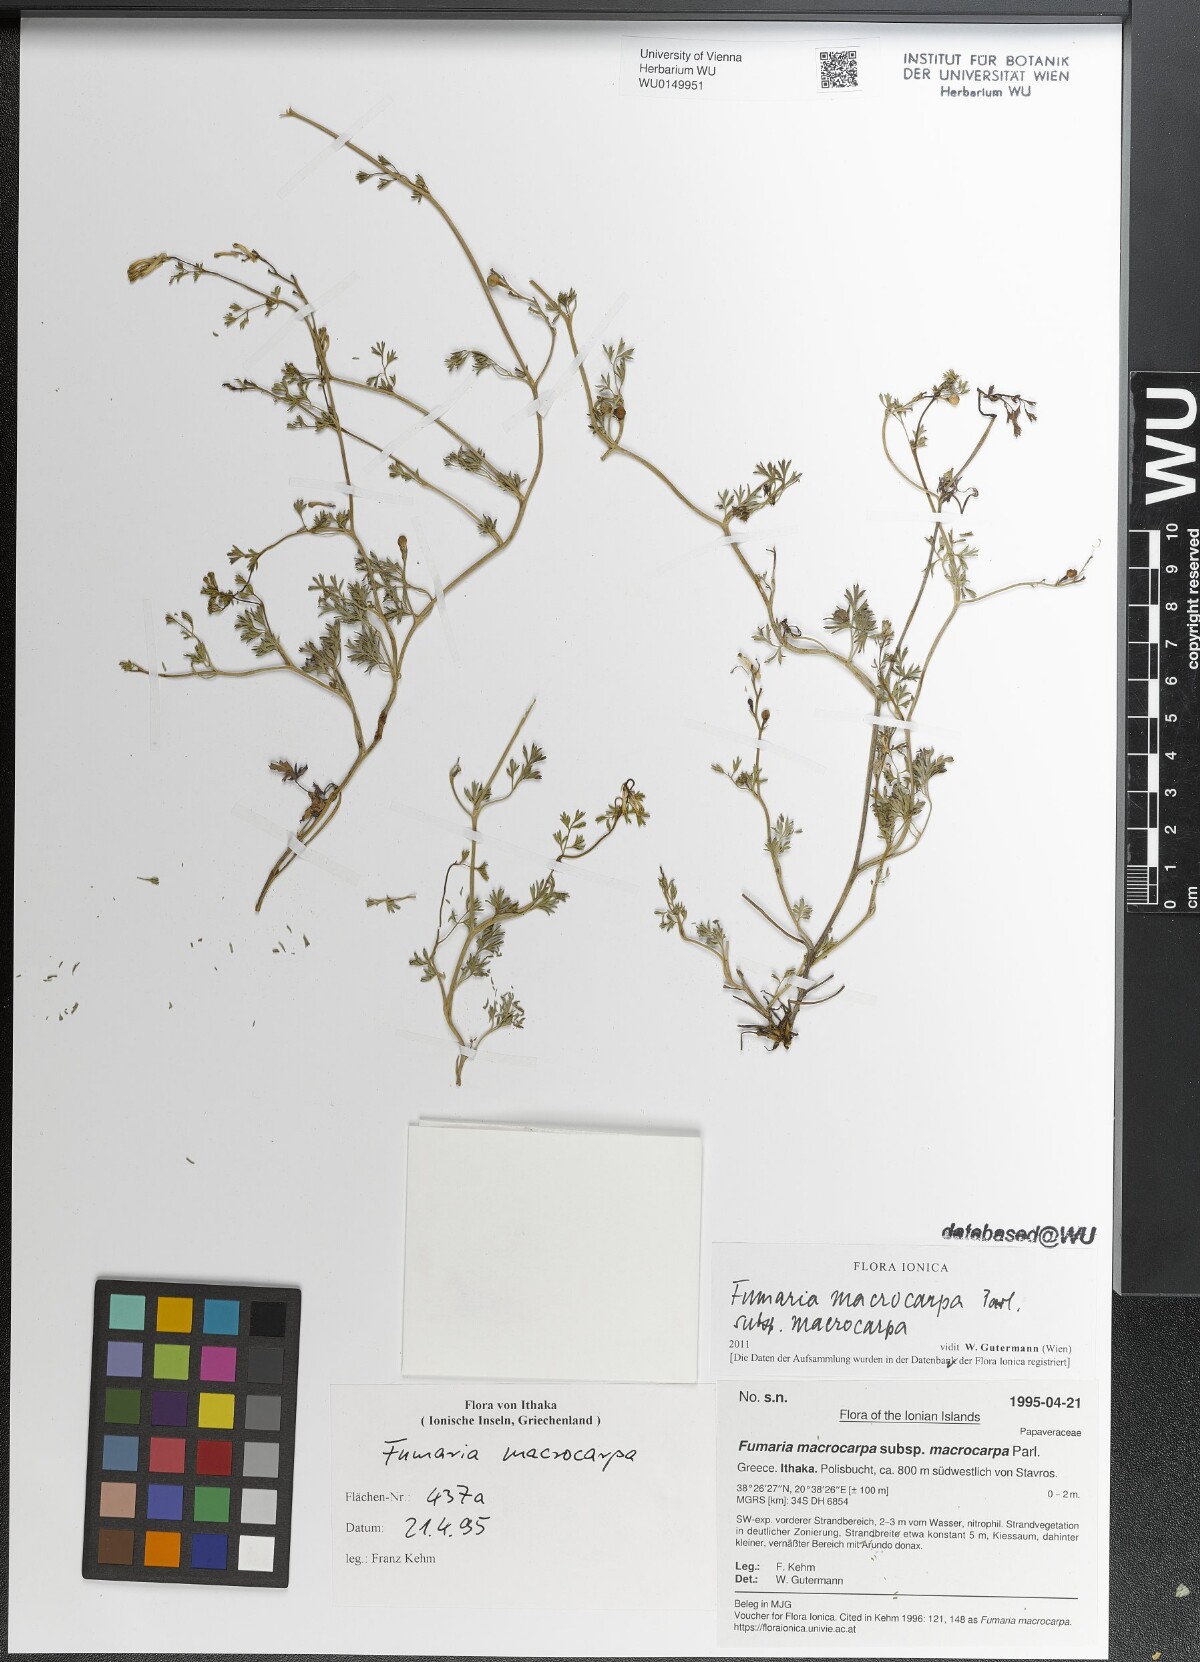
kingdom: Plantae
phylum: Tracheophyta
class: Magnoliopsida
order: Ranunculales
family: Papaveraceae
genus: Fumaria
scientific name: Fumaria macrocarpa
